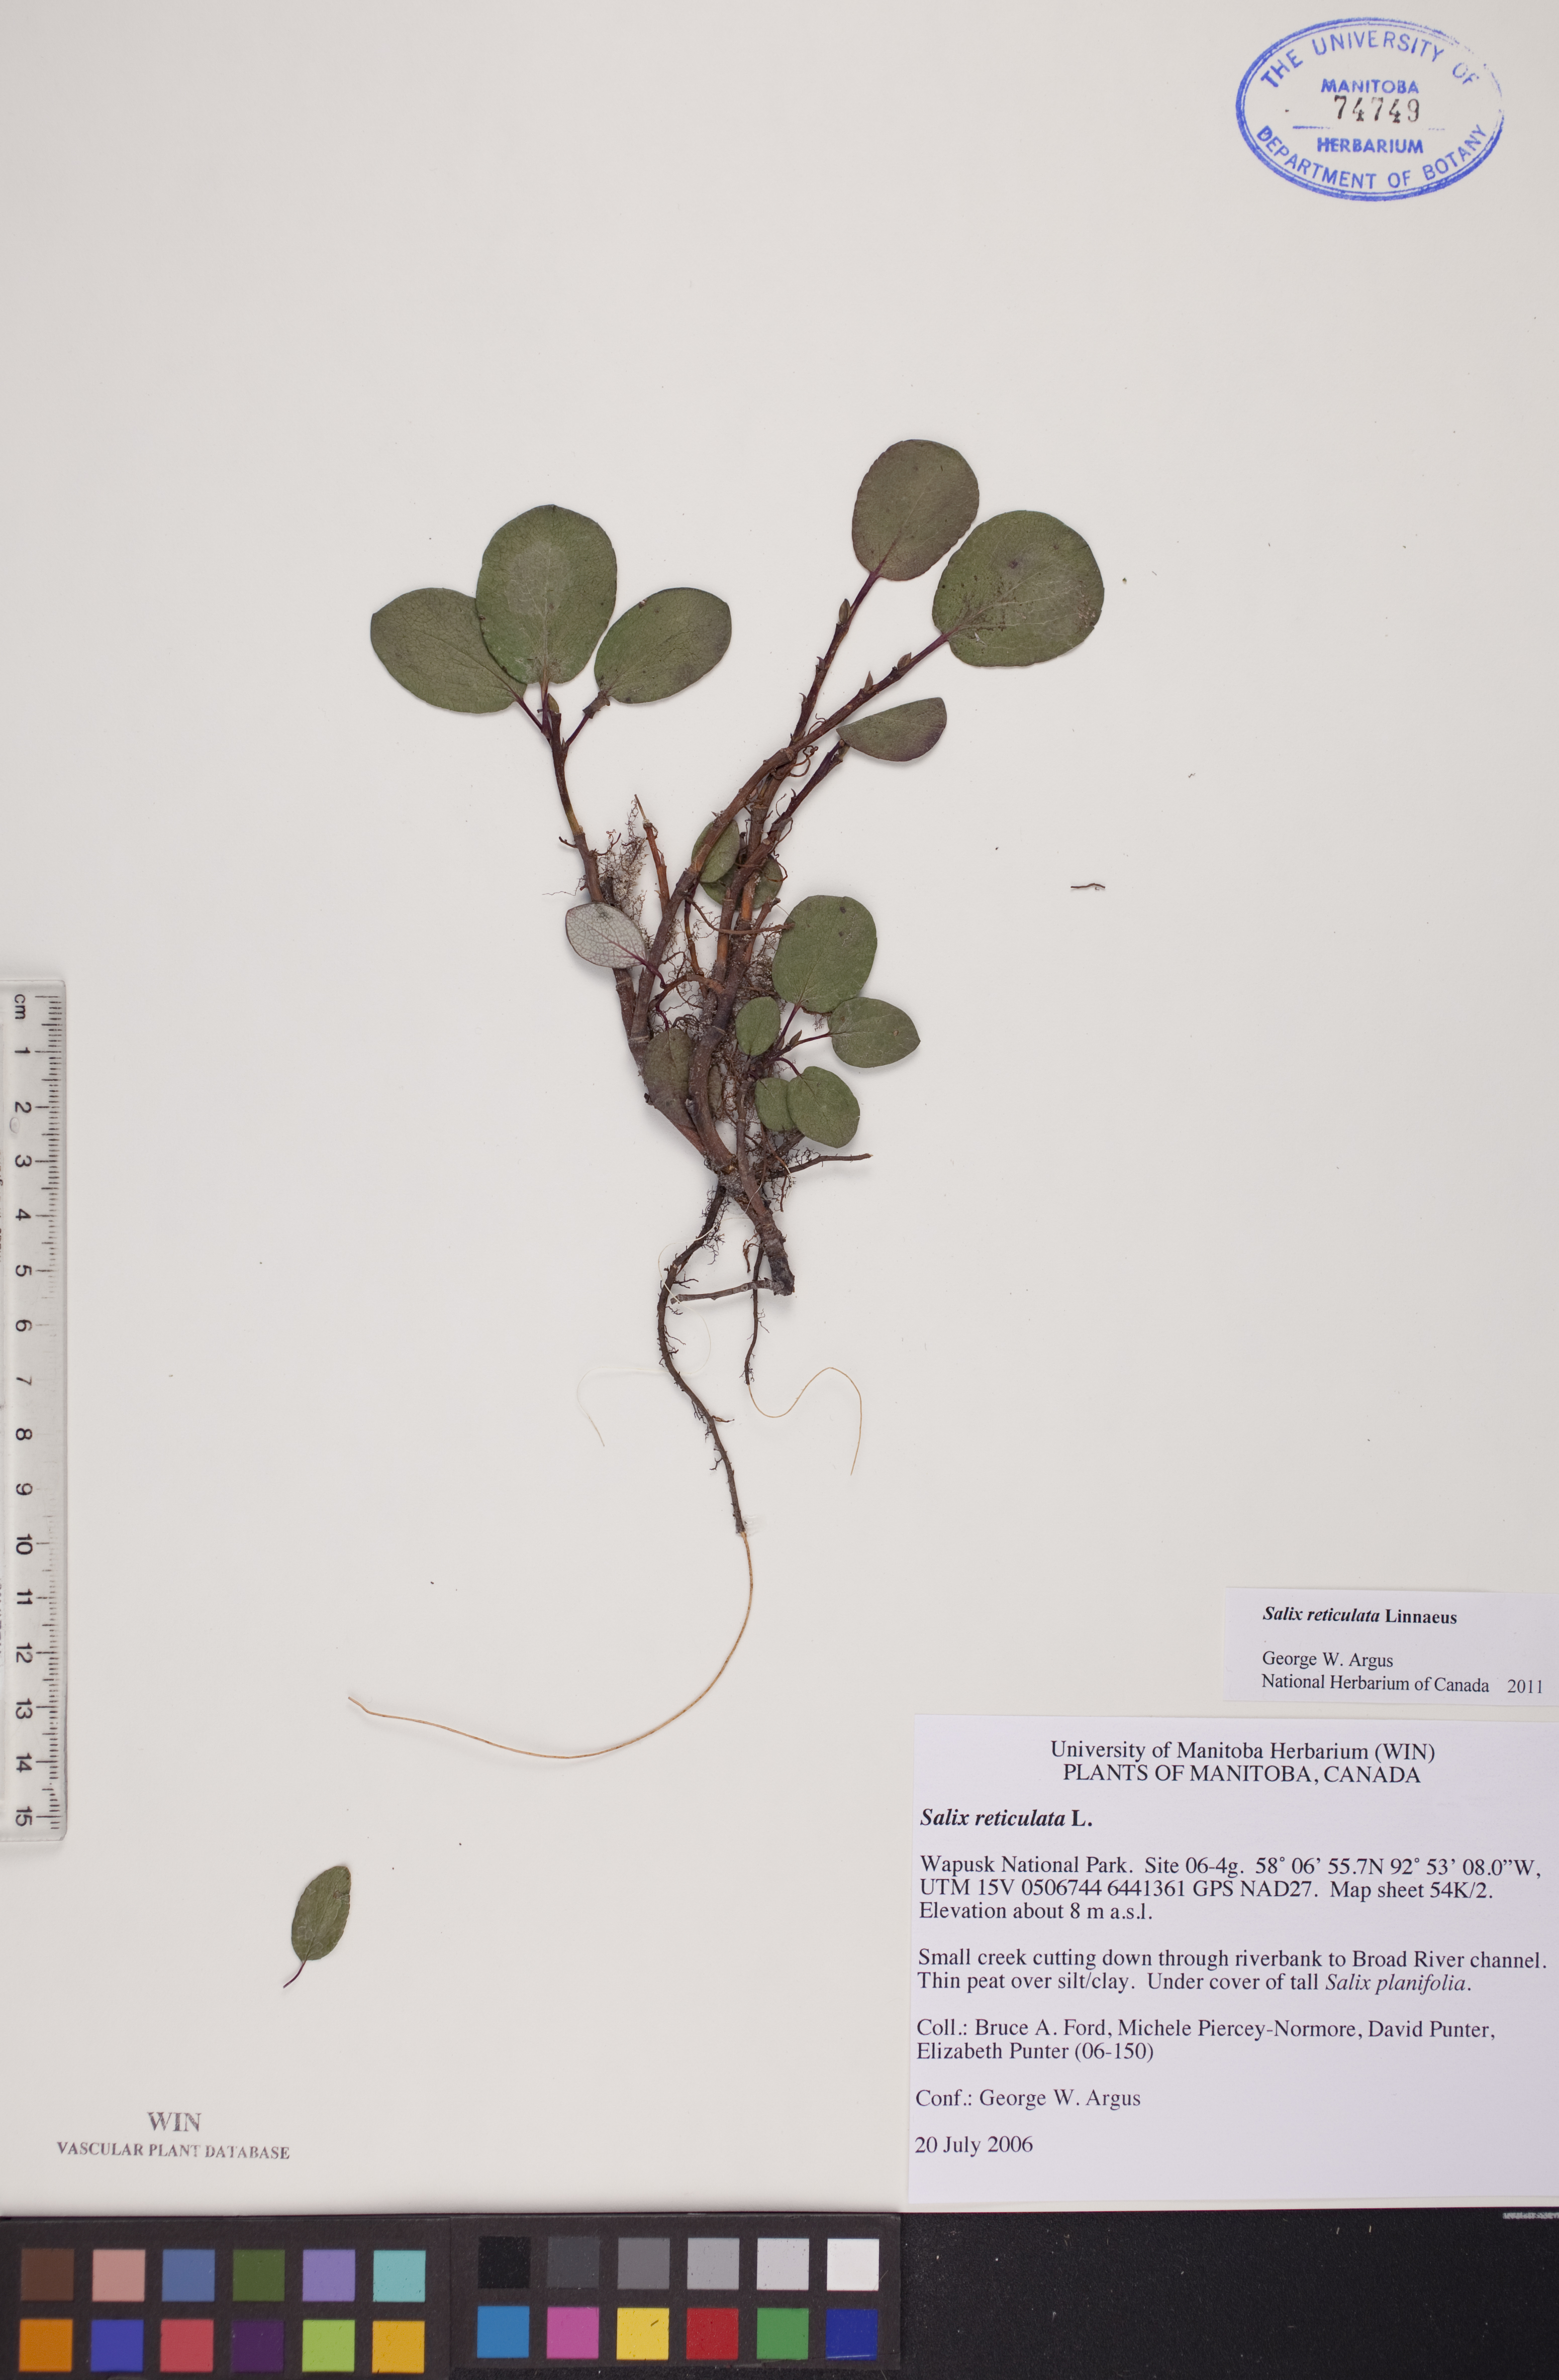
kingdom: Plantae
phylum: Tracheophyta
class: Magnoliopsida
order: Malpighiales
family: Salicaceae
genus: Salix
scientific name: Salix reticulata
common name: Net-leaved willow
